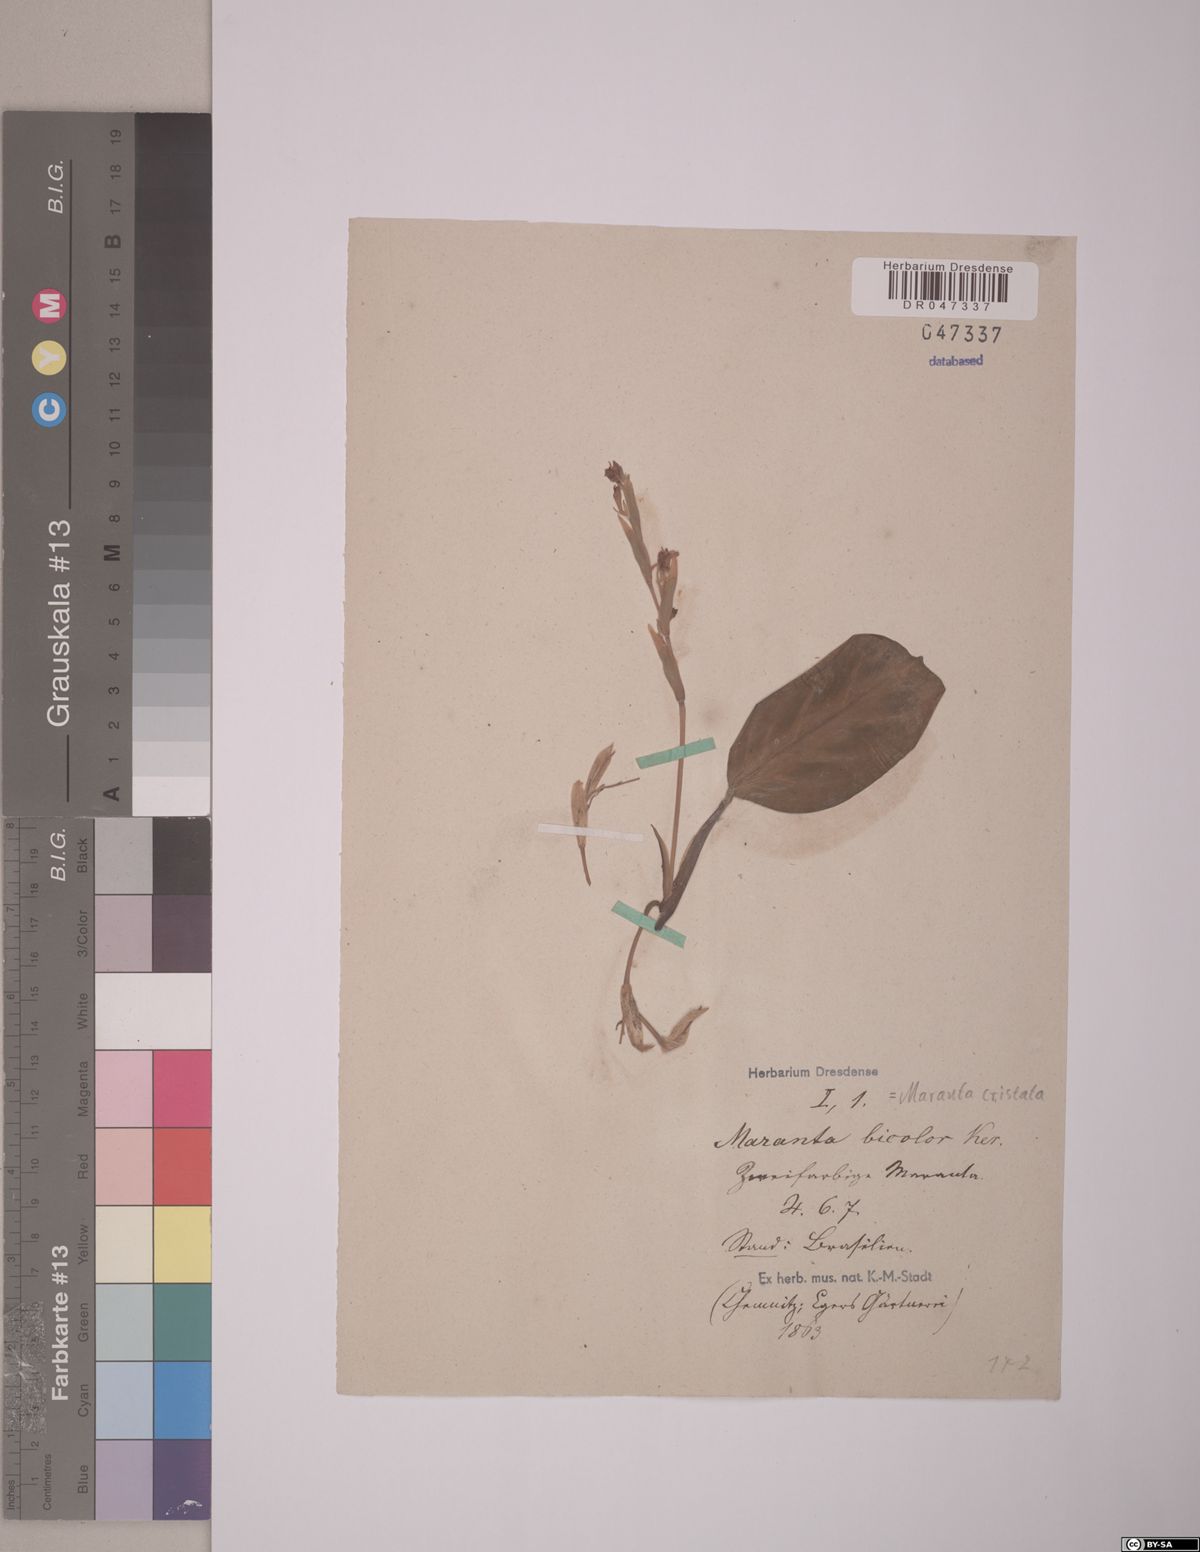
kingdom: Plantae
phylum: Tracheophyta
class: Liliopsida
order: Zingiberales
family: Marantaceae
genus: Maranta
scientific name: Maranta cristata
